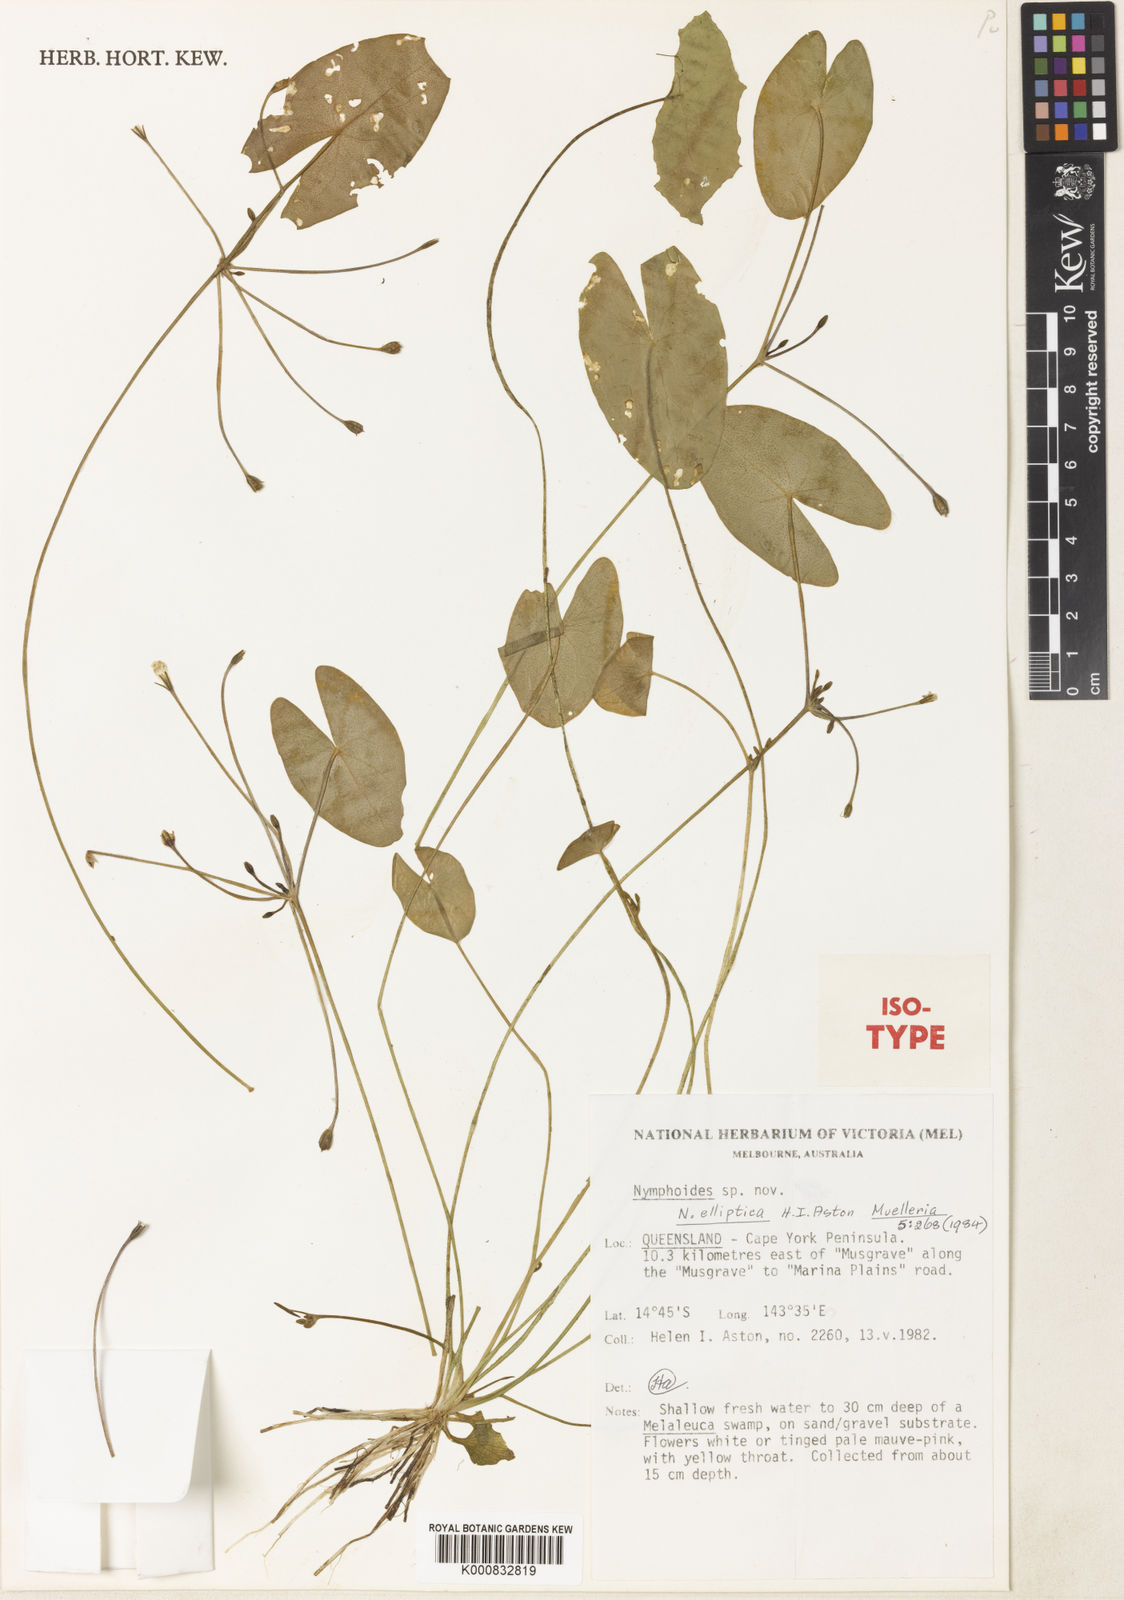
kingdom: Plantae
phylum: Tracheophyta
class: Magnoliopsida
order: Asterales
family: Menyanthaceae
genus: Nymphoides
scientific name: Nymphoides elliptica
